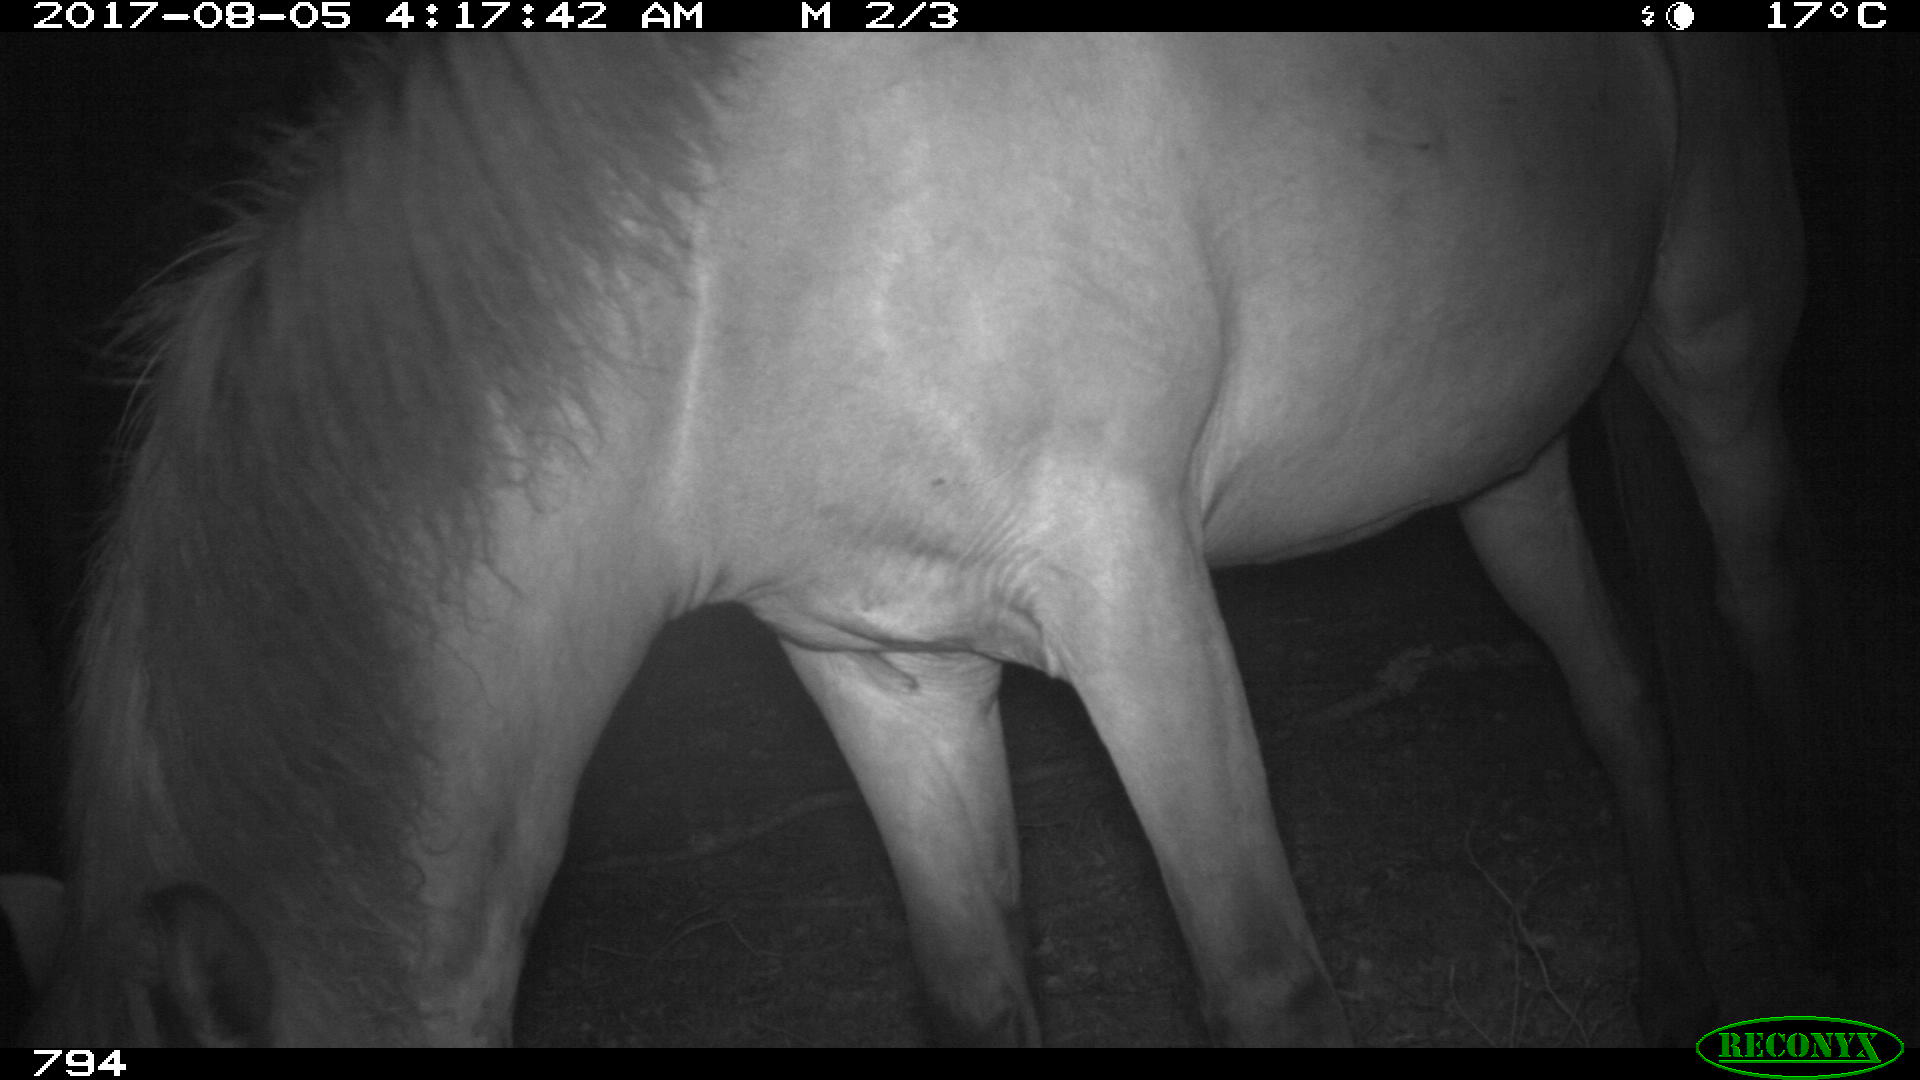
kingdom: Animalia
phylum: Chordata
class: Mammalia
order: Perissodactyla
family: Equidae
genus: Equus
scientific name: Equus caballus
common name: Horse
